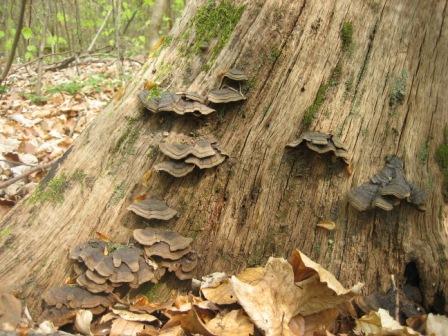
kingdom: Fungi
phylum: Basidiomycota
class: Agaricomycetes
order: Hymenochaetales
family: Hymenochaetaceae
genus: Hymenochaete
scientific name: Hymenochaete rubiginosa
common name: stiv ruslædersvamp
